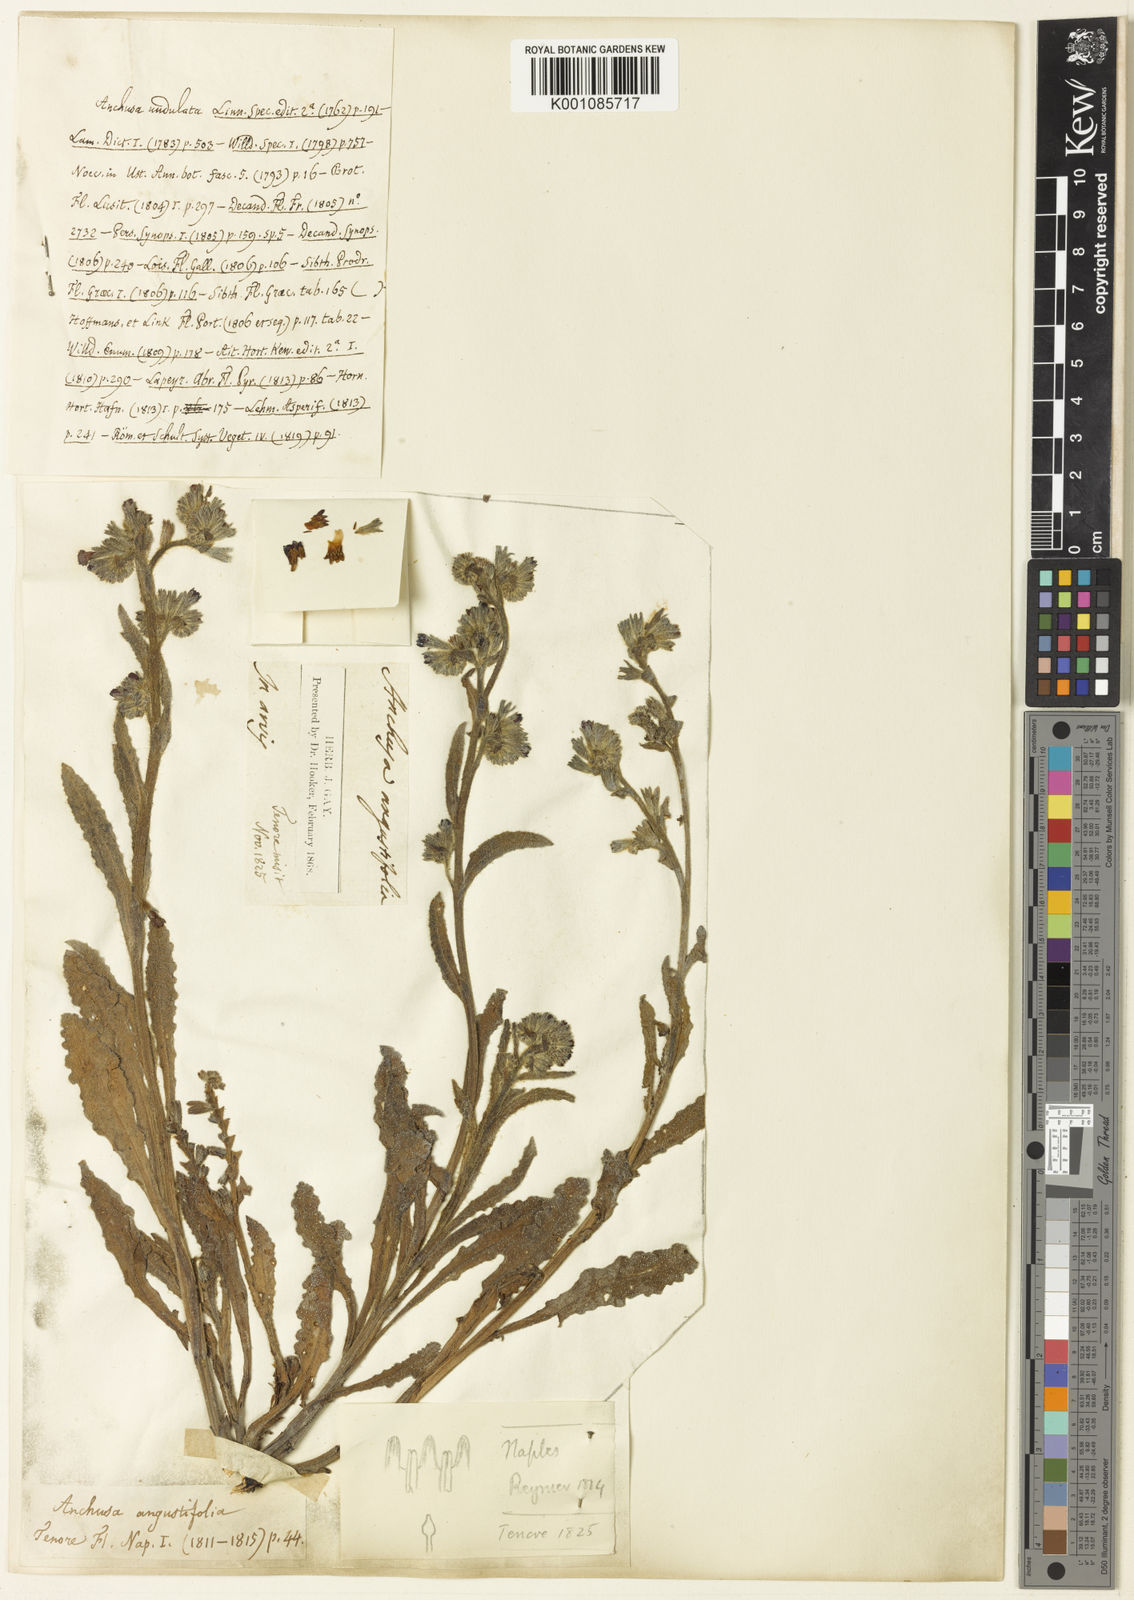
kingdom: Plantae
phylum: Tracheophyta
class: Magnoliopsida
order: Boraginales
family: Boraginaceae
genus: Anchusa
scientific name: Anchusa officinalis
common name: Alkanet
